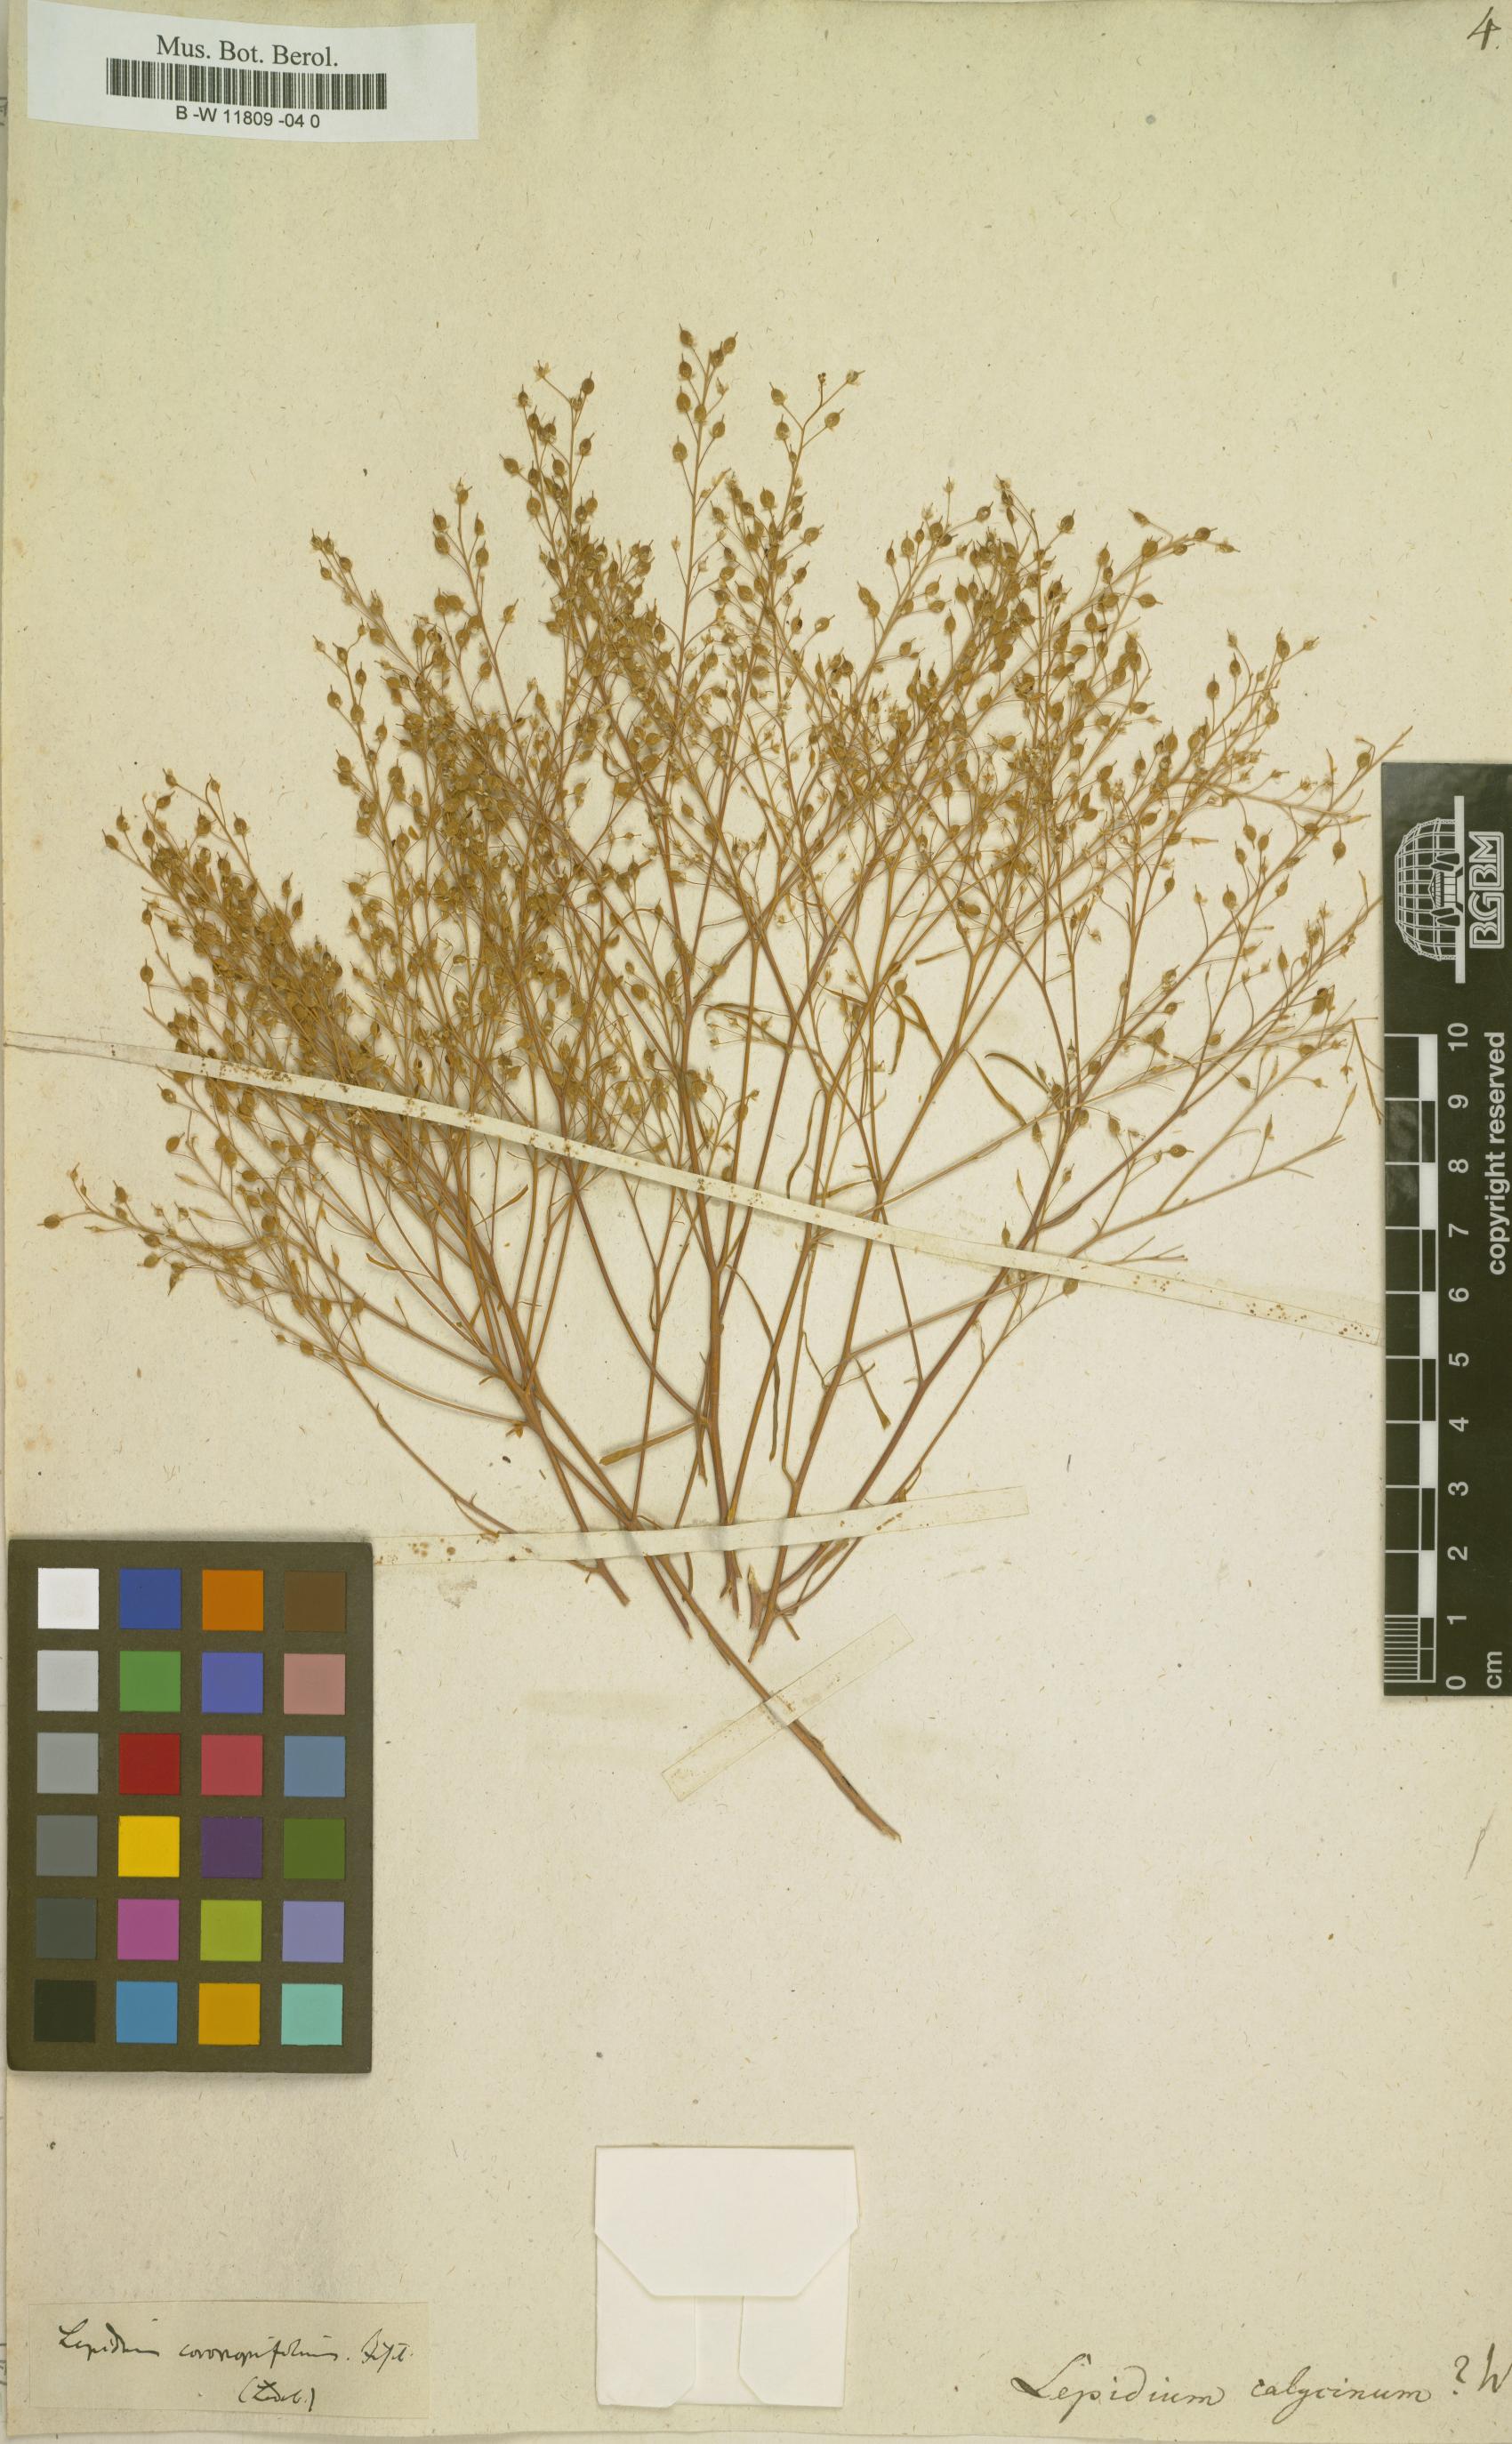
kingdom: Plantae
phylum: Tracheophyta
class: Magnoliopsida
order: Brassicales
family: Brassicaceae
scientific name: Brassicaceae
